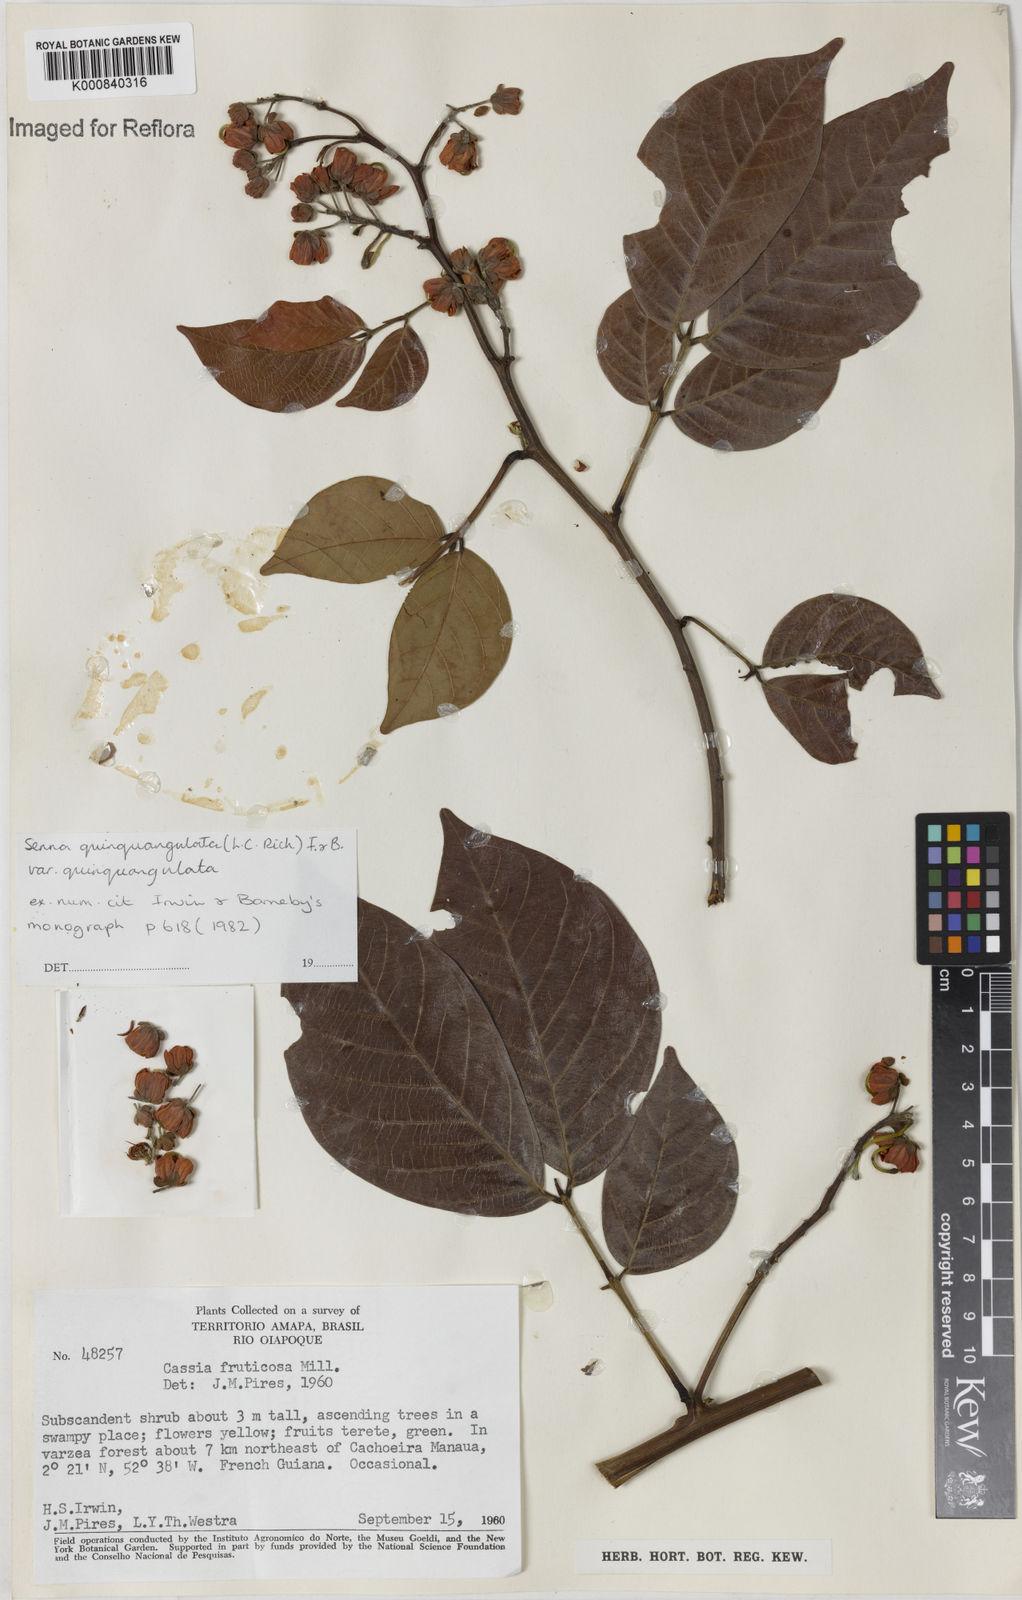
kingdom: Plantae
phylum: Tracheophyta
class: Magnoliopsida
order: Fabales
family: Fabaceae
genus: Senna
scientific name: Senna
